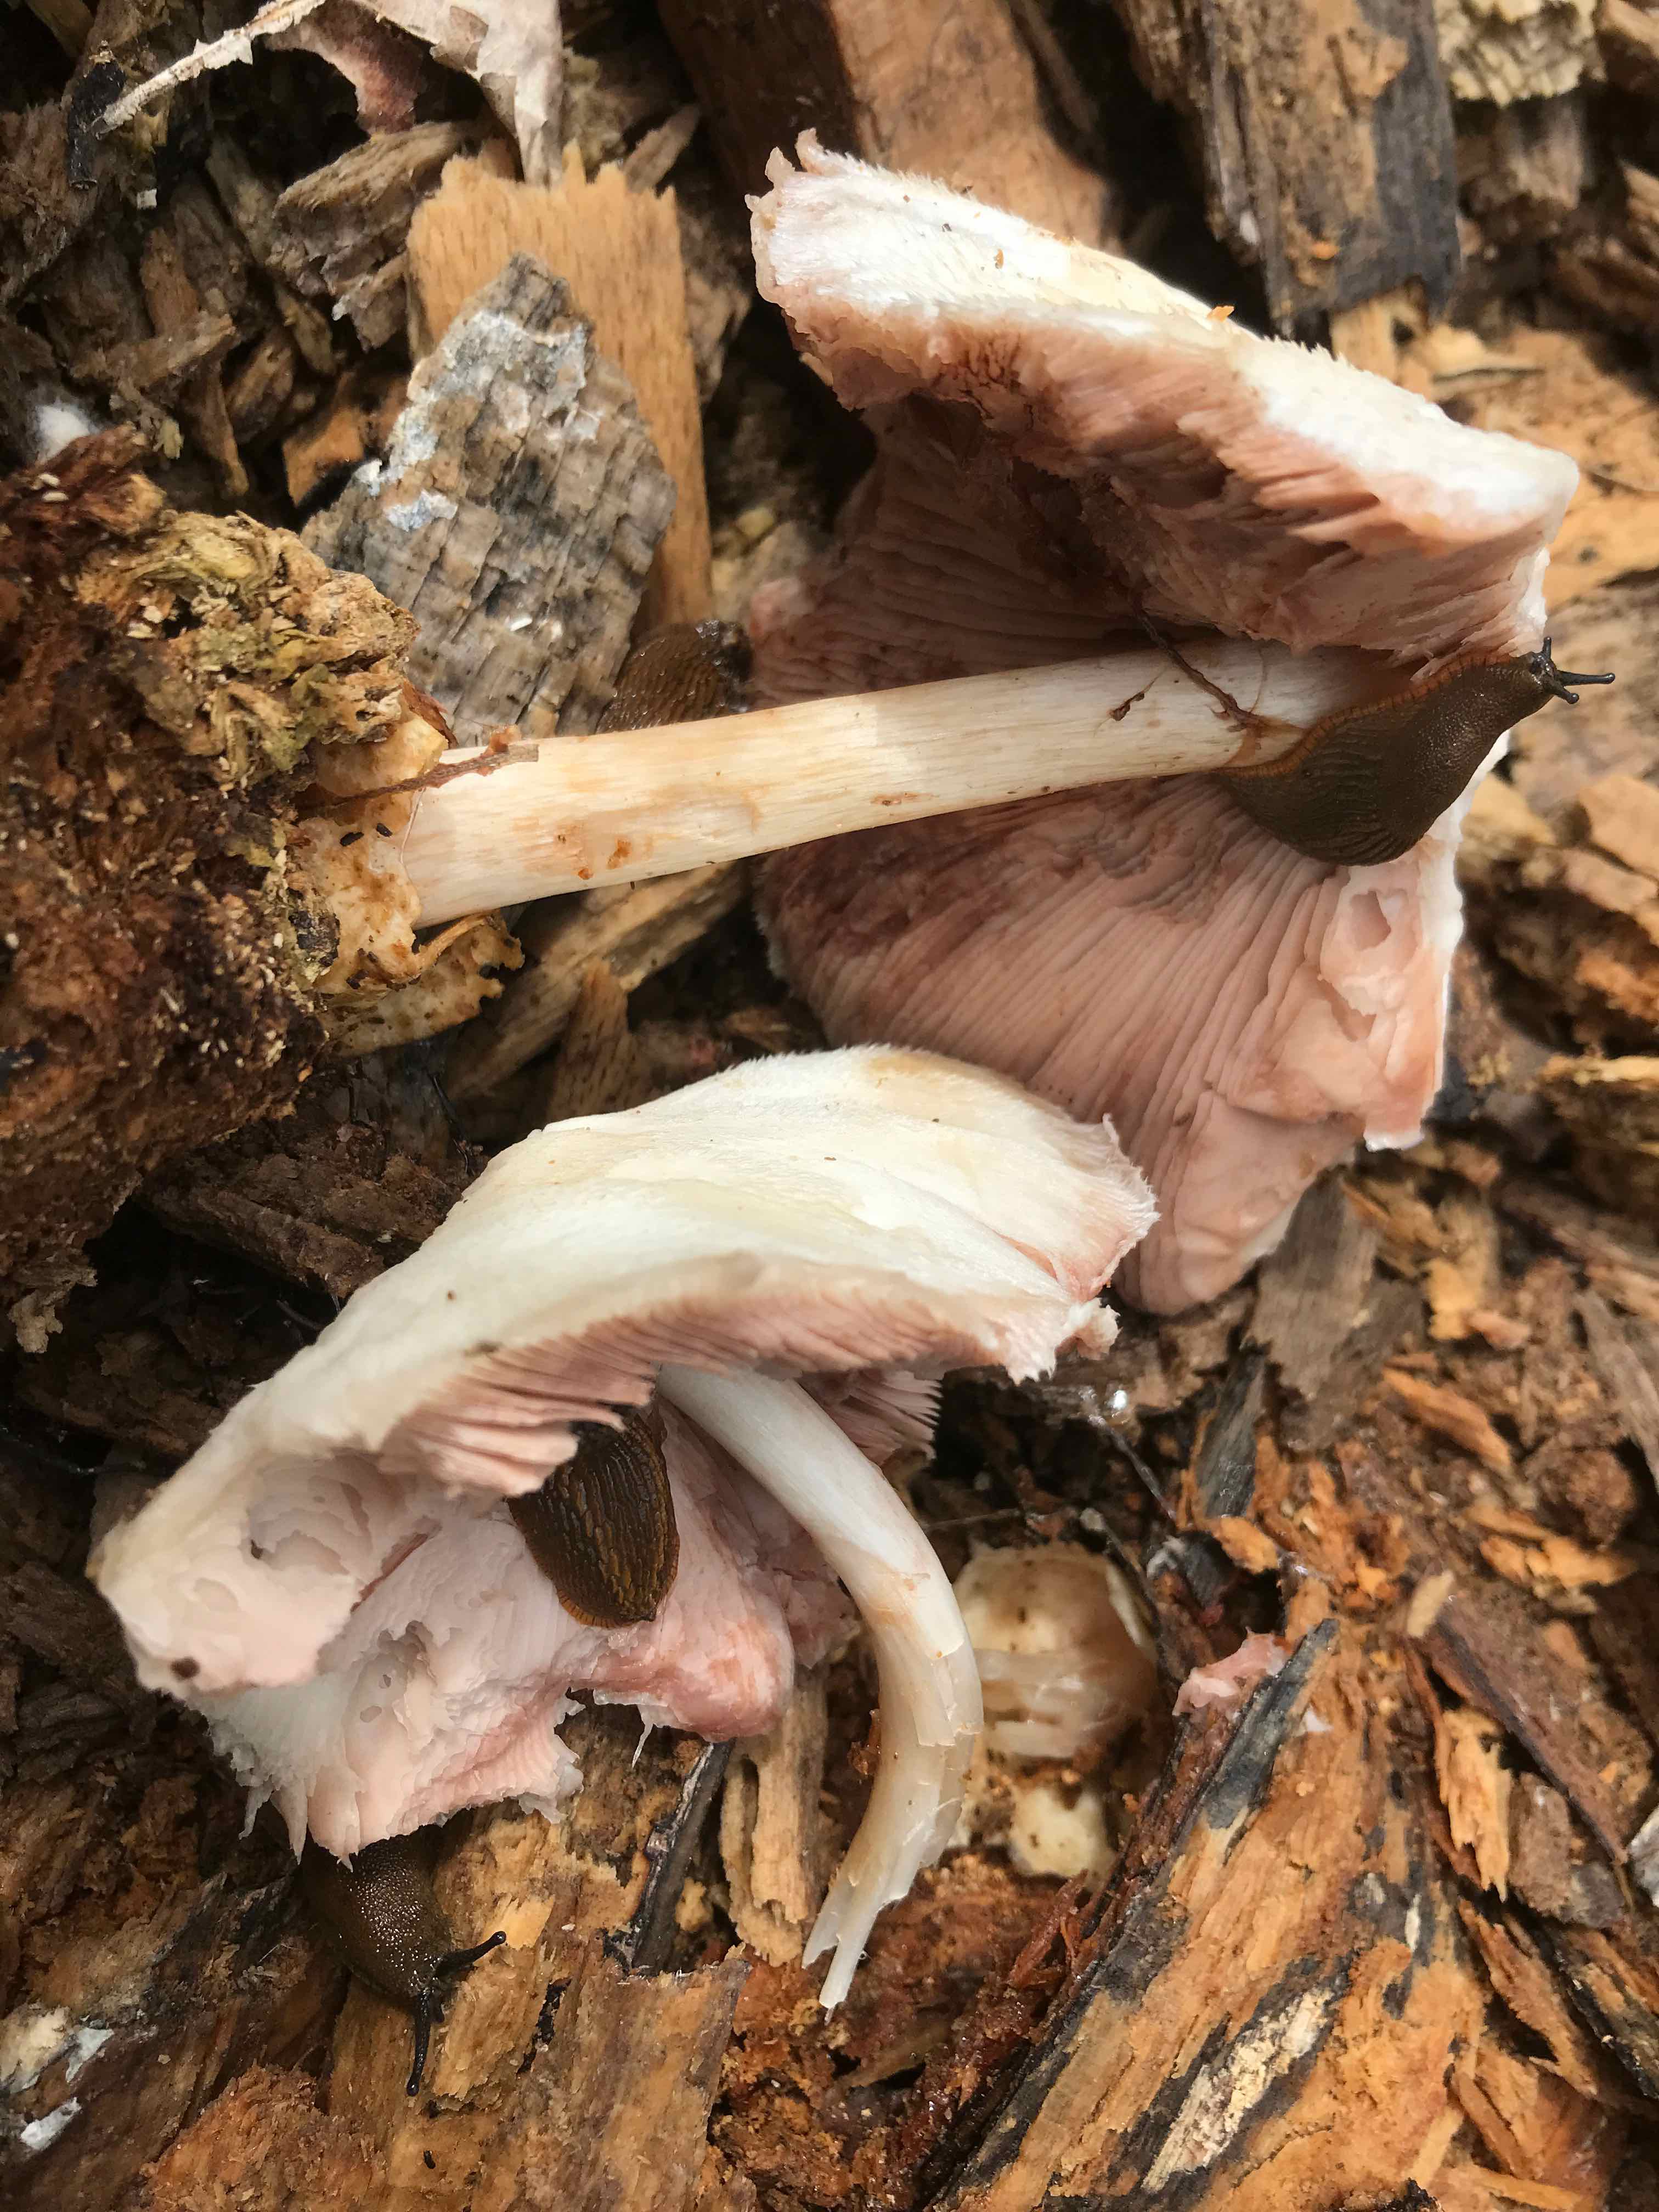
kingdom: Fungi
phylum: Basidiomycota
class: Agaricomycetes
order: Agaricales
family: Pluteaceae
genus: Volvariella
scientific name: Volvariella bombycina
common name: silkehåret posesvamp
